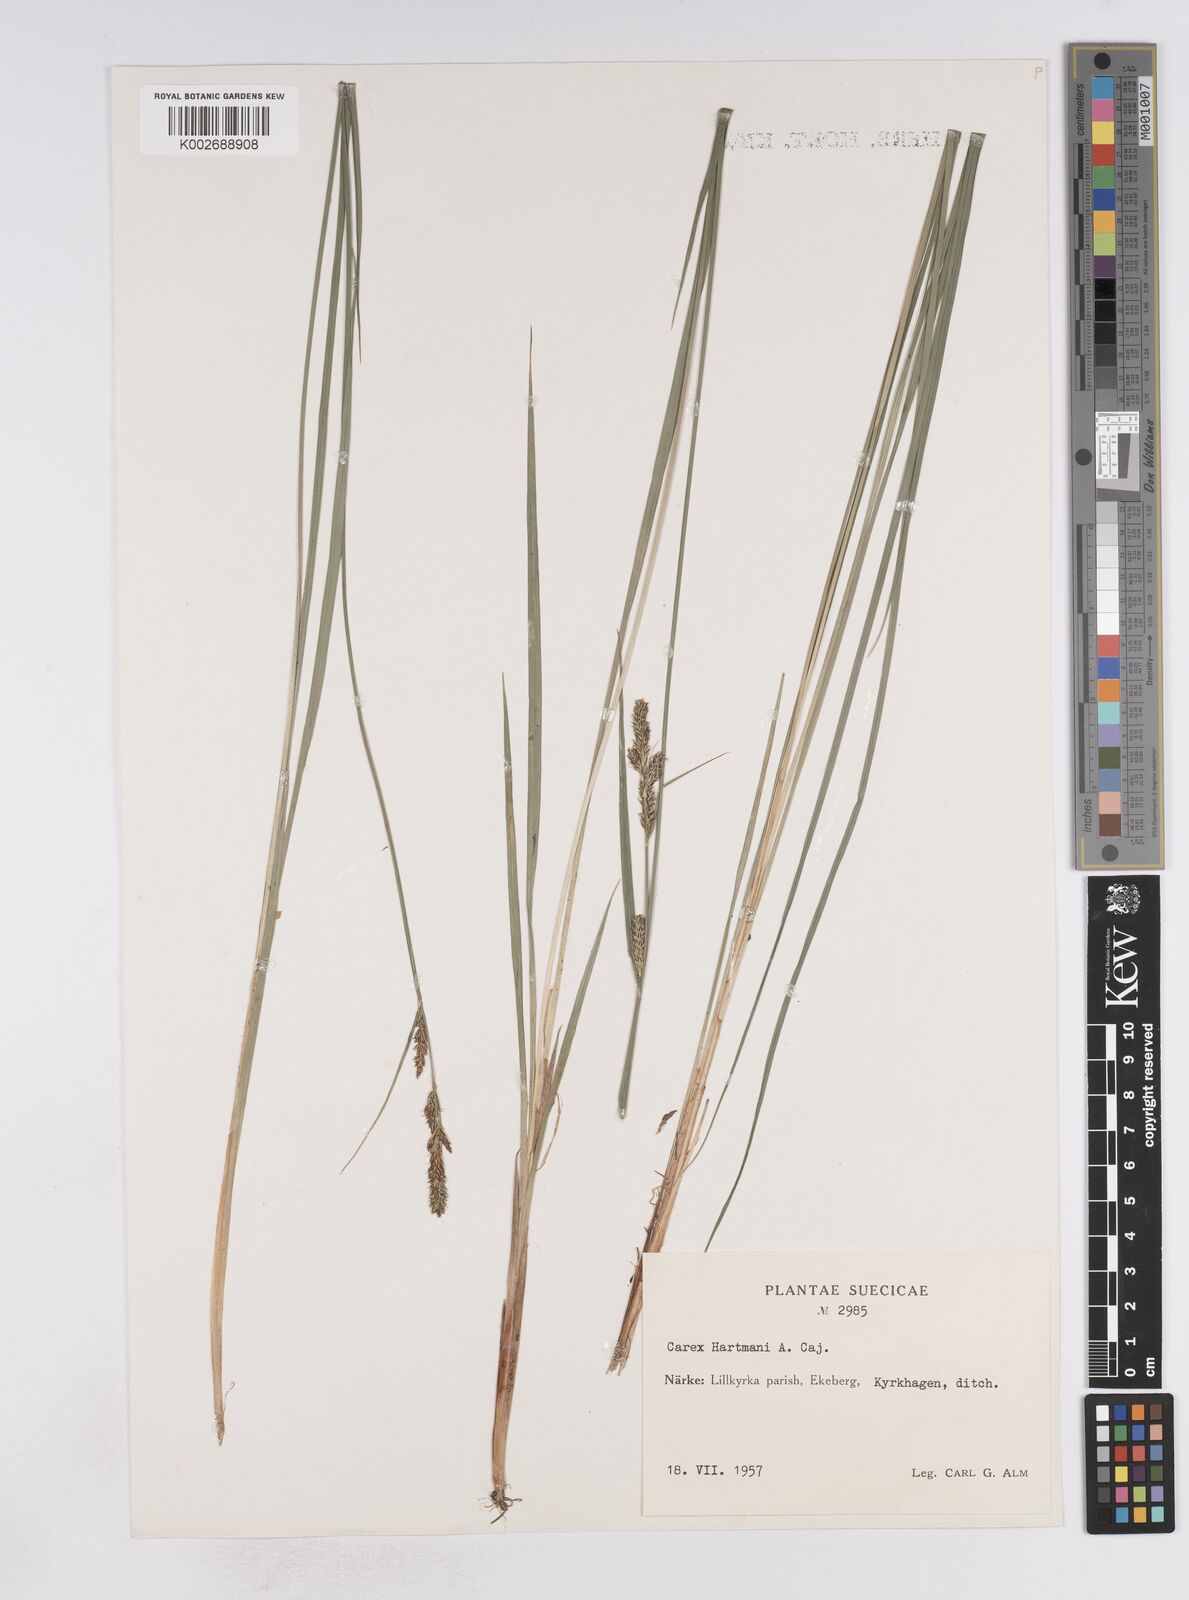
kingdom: Plantae
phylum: Tracheophyta
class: Liliopsida
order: Poales
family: Cyperaceae
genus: Carex
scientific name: Carex hartmaniorum
